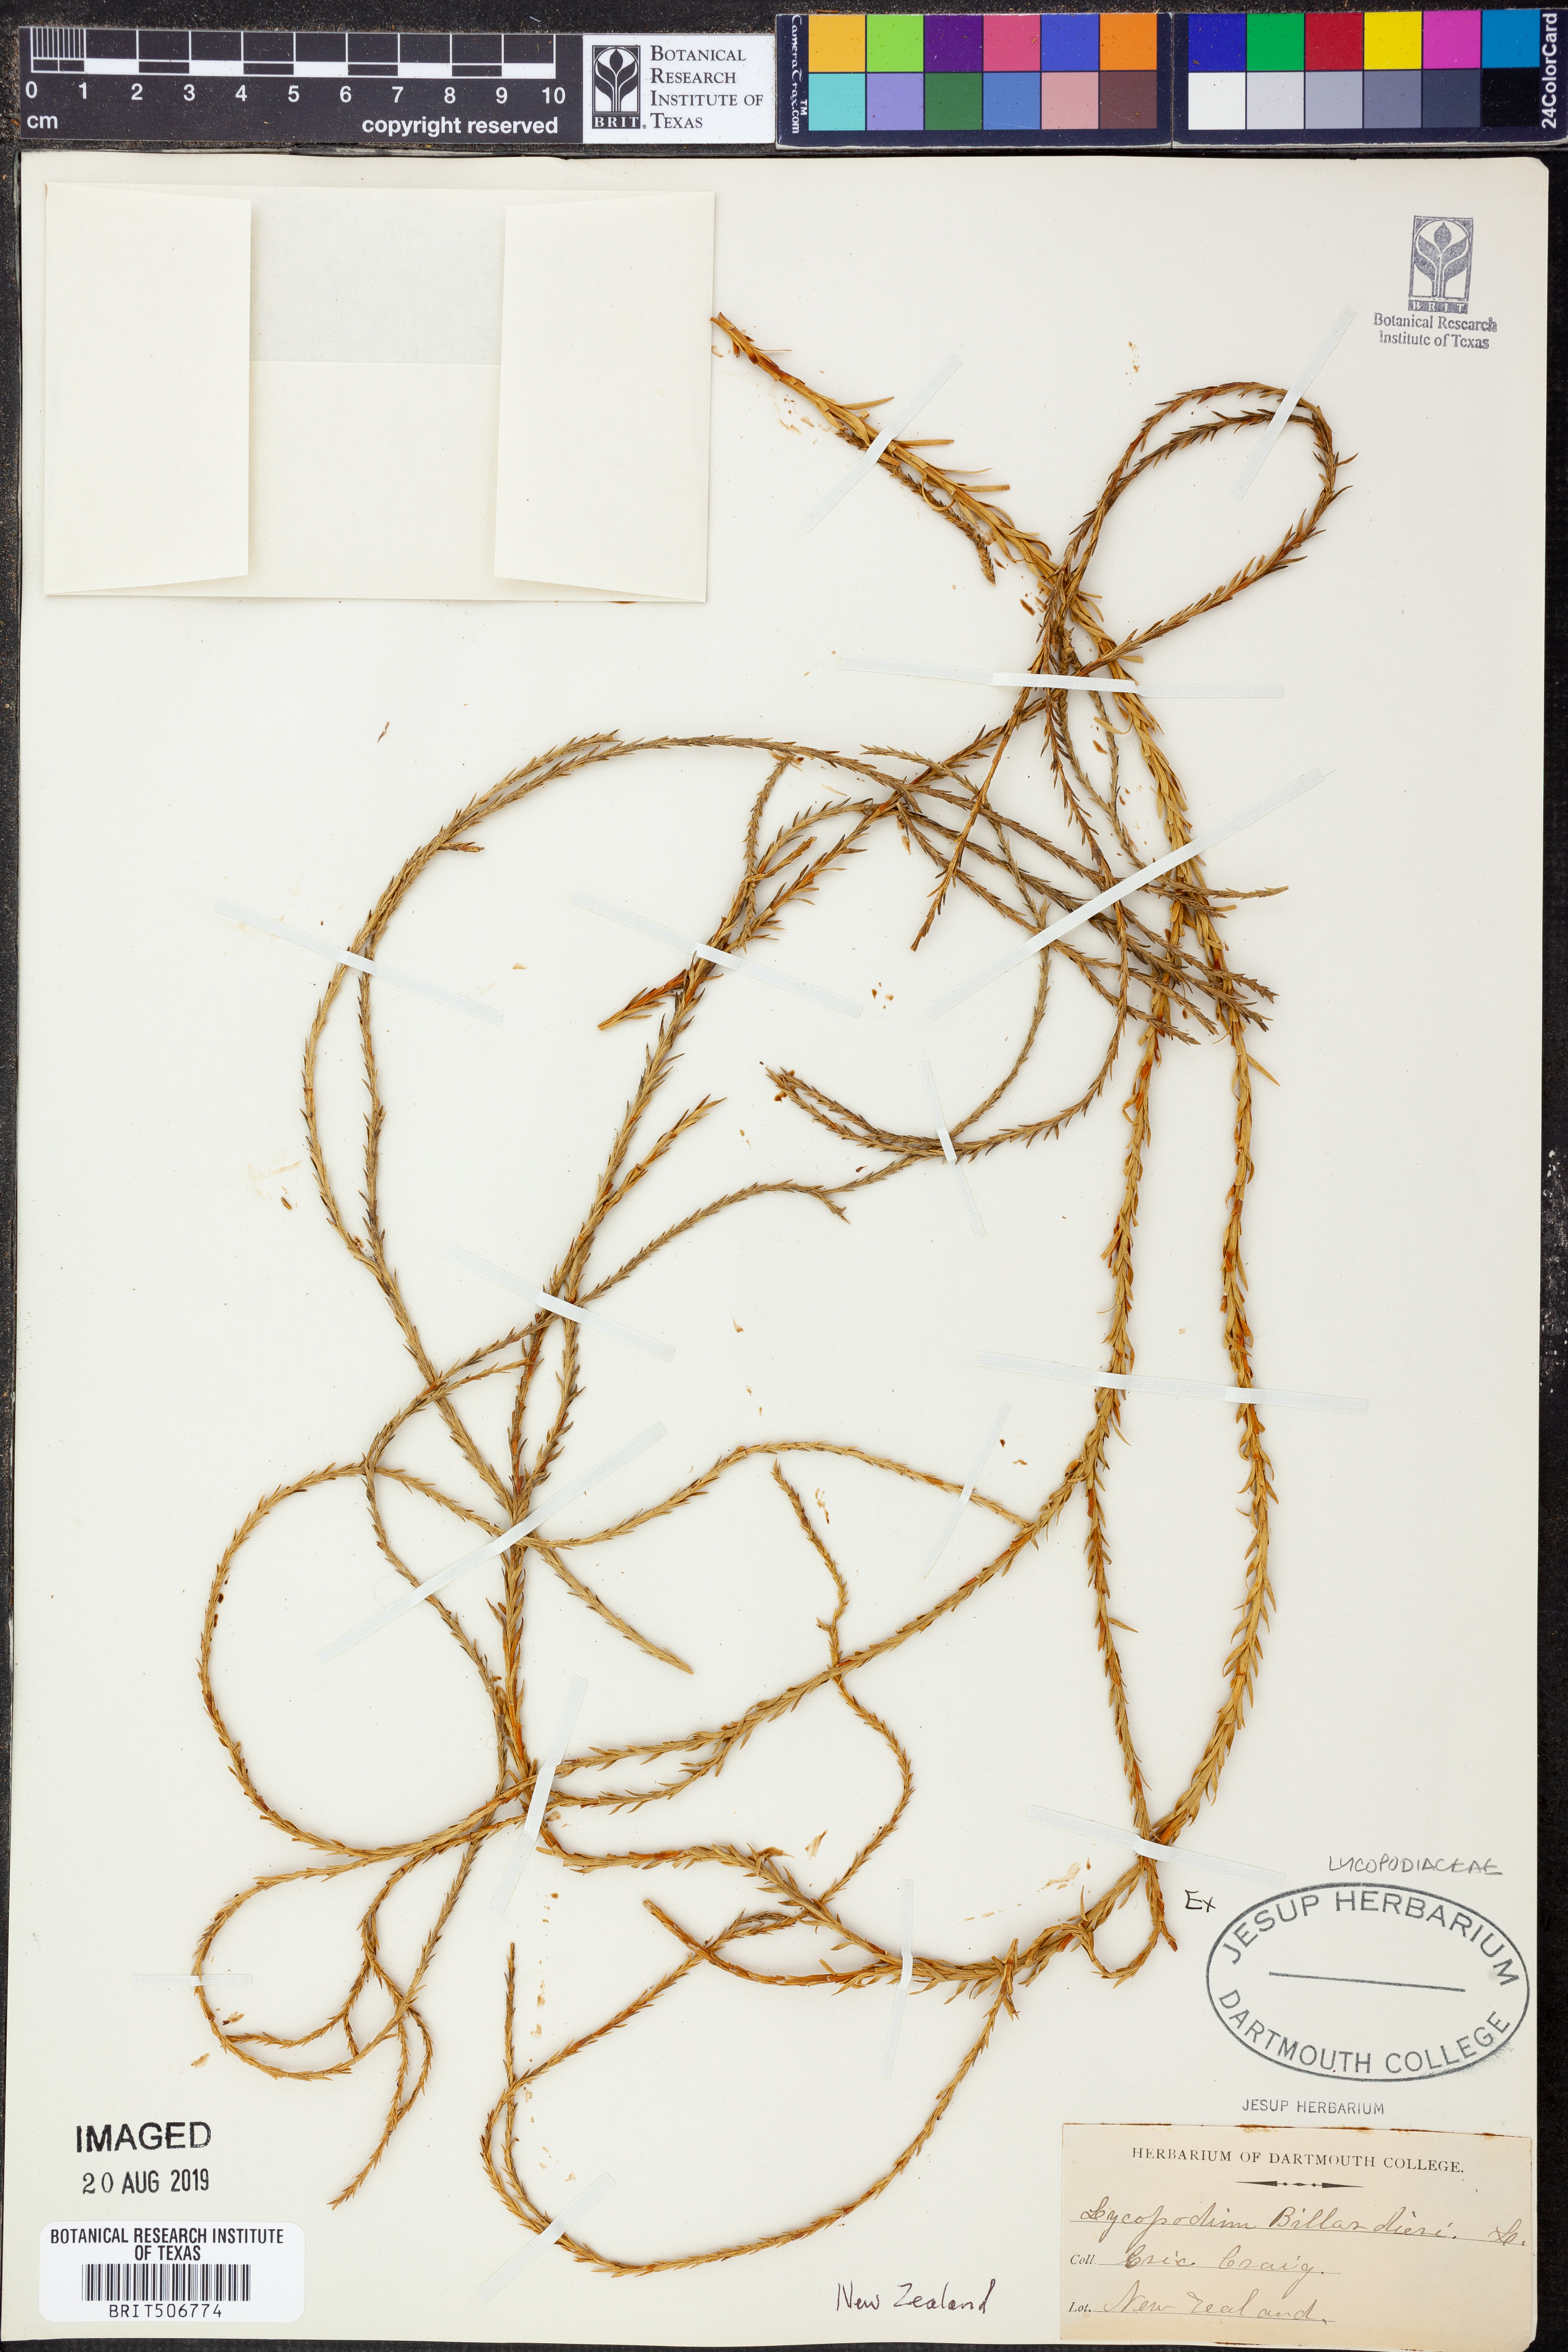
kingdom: Plantae
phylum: Tracheophyta
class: Lycopodiopsida
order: Lycopodiales
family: Lycopodiaceae
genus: Phlegmariurus
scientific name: Phlegmariurus billardierei
